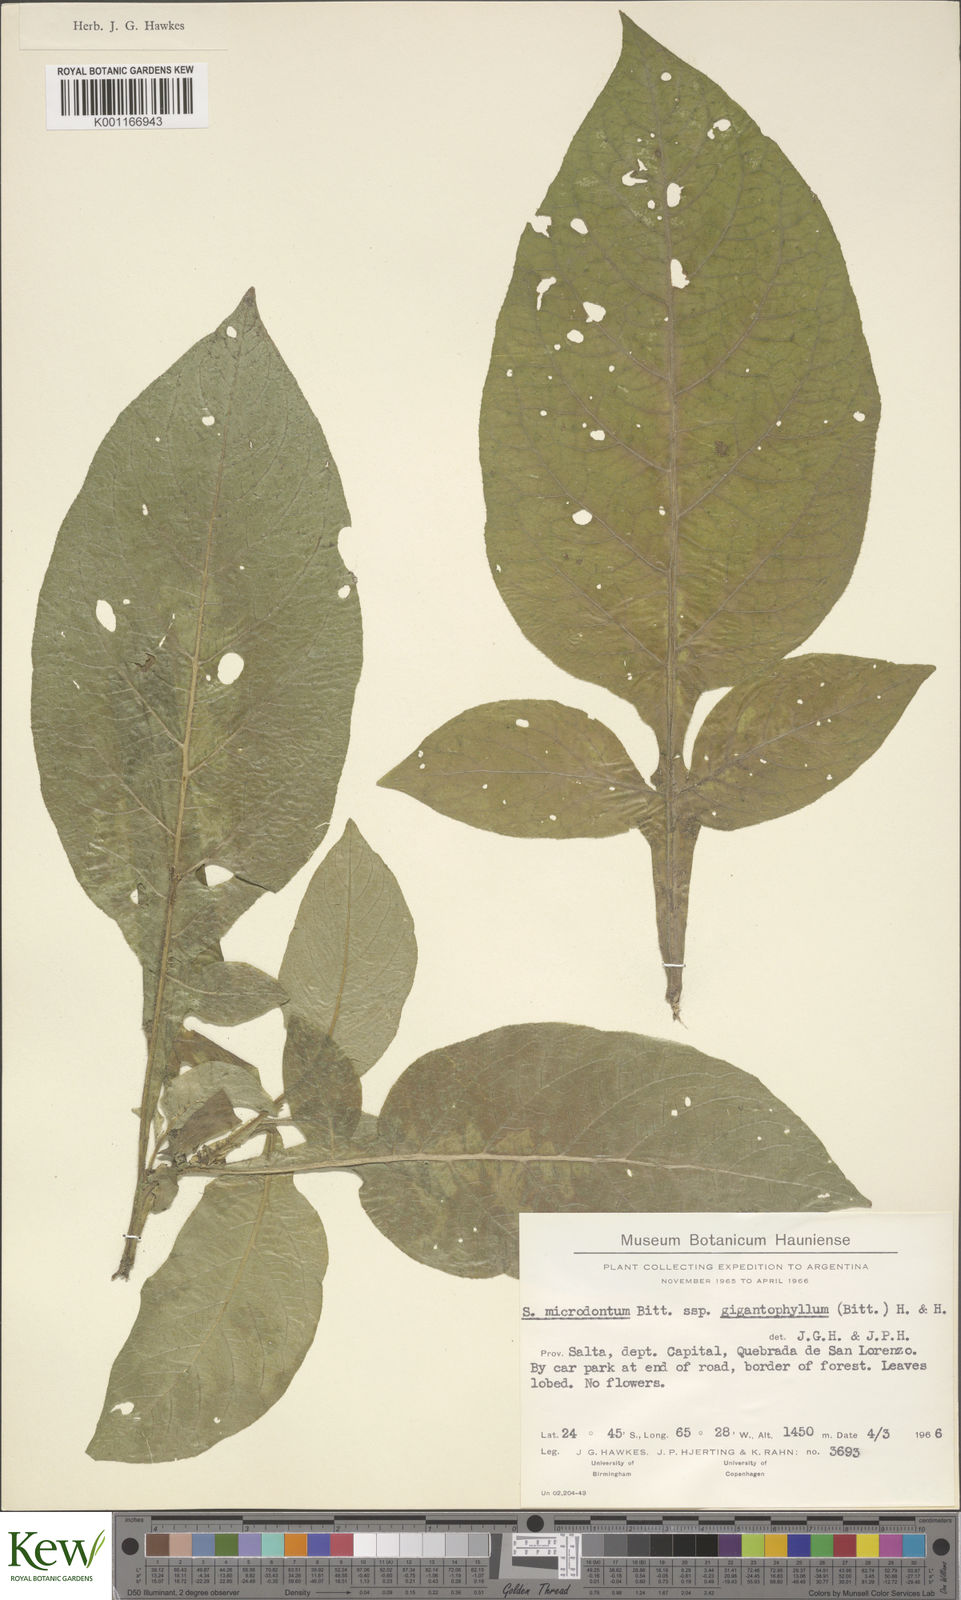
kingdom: Plantae
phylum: Tracheophyta
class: Magnoliopsida
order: Solanales
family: Solanaceae
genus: Solanum
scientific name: Solanum microdontum
